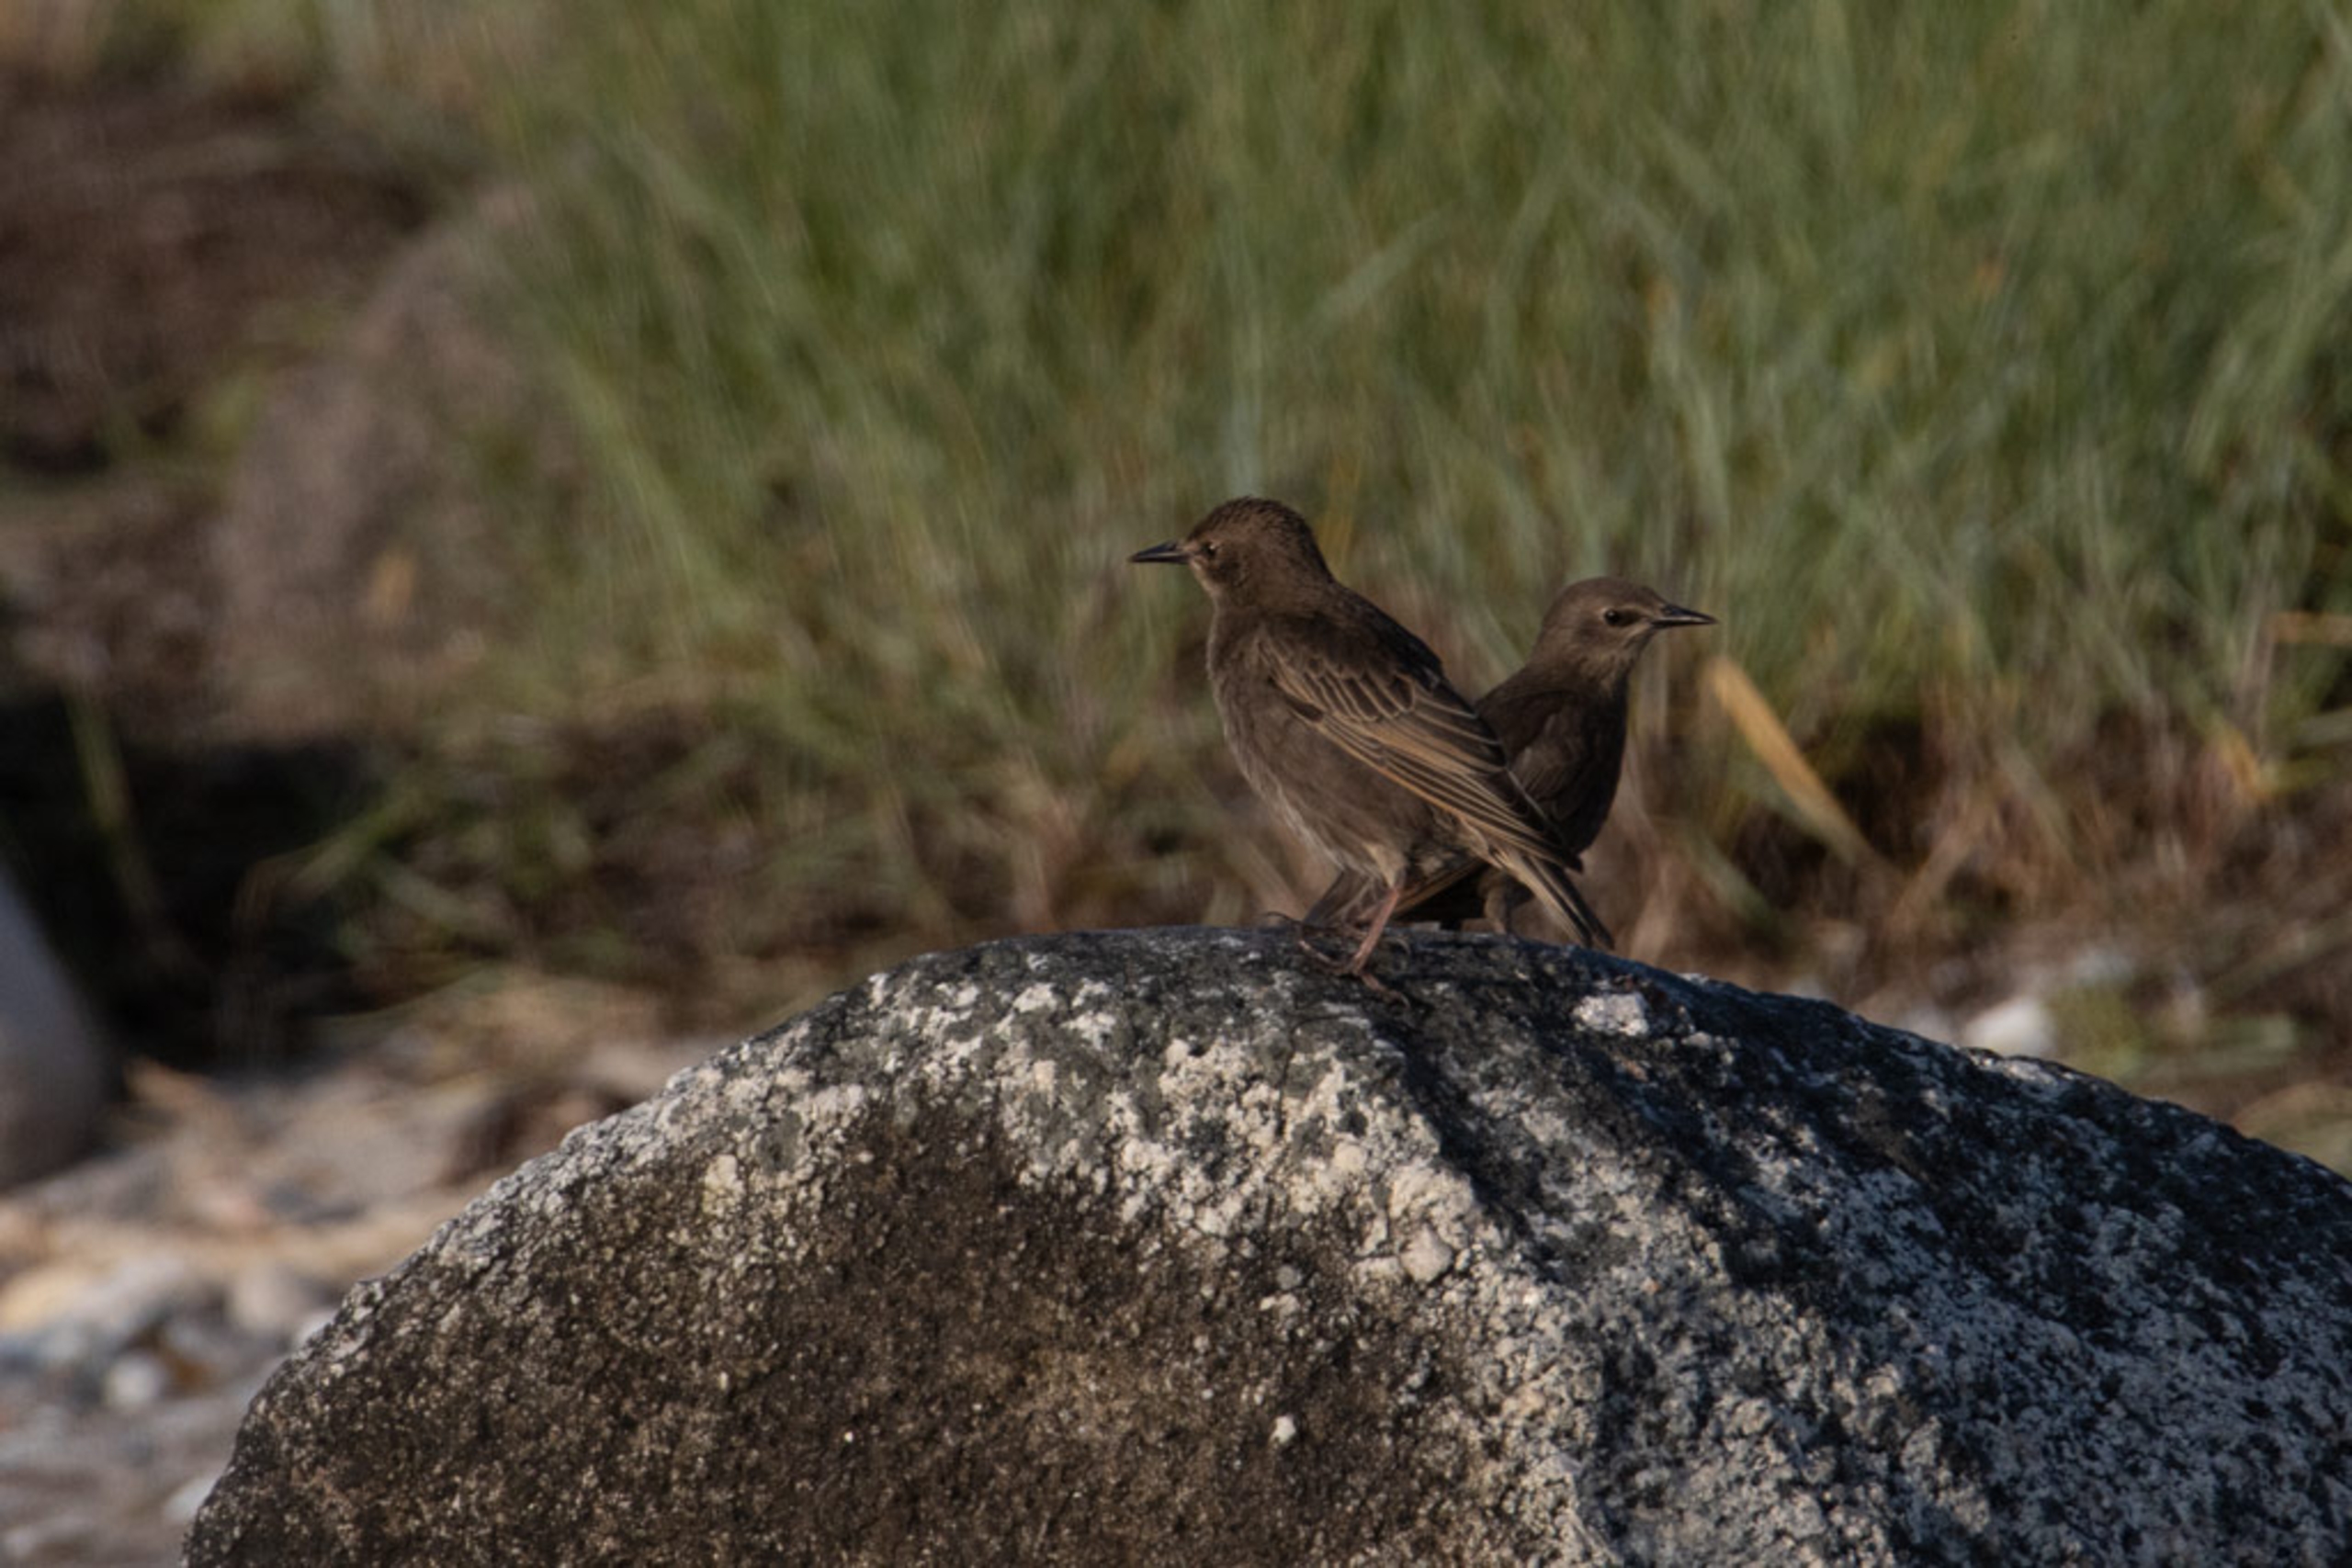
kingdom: Animalia
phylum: Chordata
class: Aves
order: Passeriformes
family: Sturnidae
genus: Sturnus
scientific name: Sturnus vulgaris
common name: Stær
